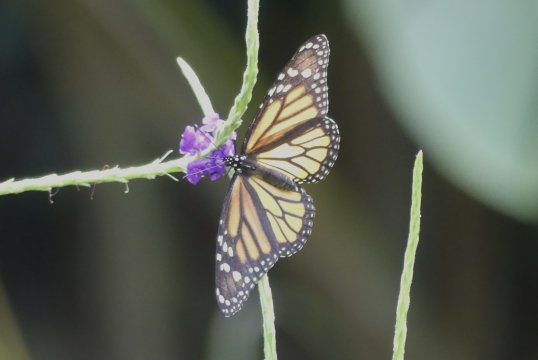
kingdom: Animalia
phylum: Arthropoda
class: Insecta
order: Lepidoptera
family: Nymphalidae
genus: Danaus
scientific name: Danaus plexippus
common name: Monarch
